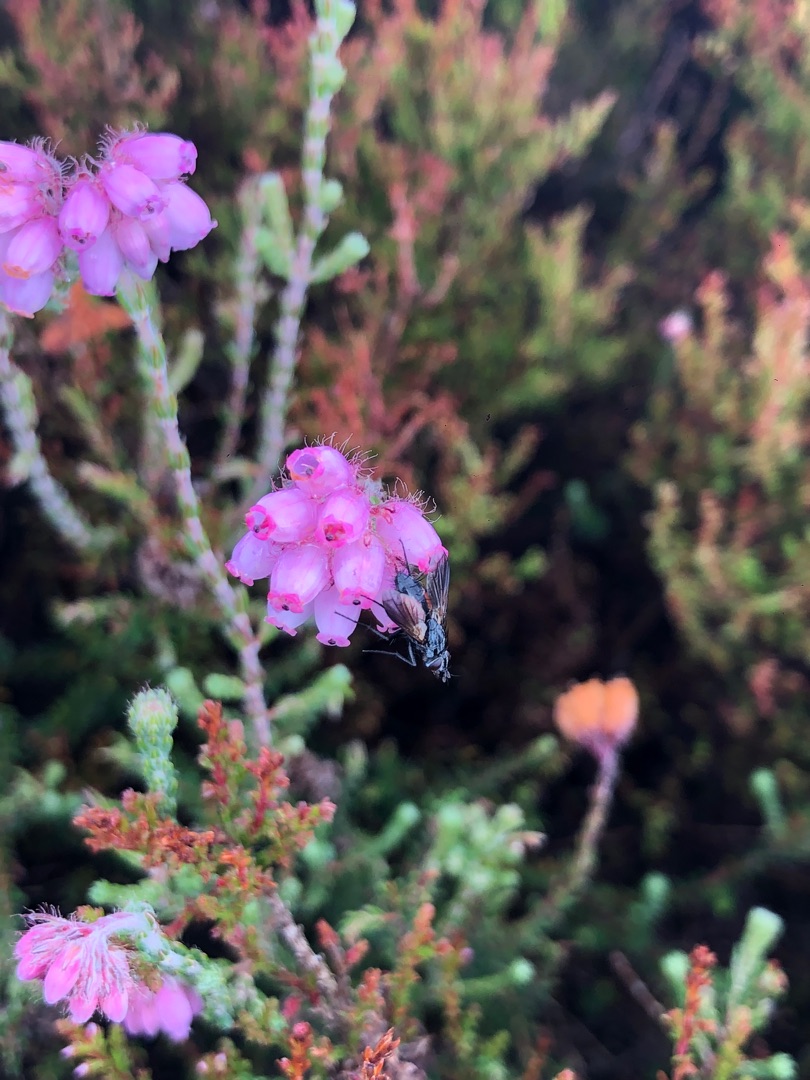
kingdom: Plantae
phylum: Tracheophyta
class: Magnoliopsida
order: Ericales
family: Ericaceae
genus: Erica
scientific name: Erica tetralix
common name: Klokkelyng
